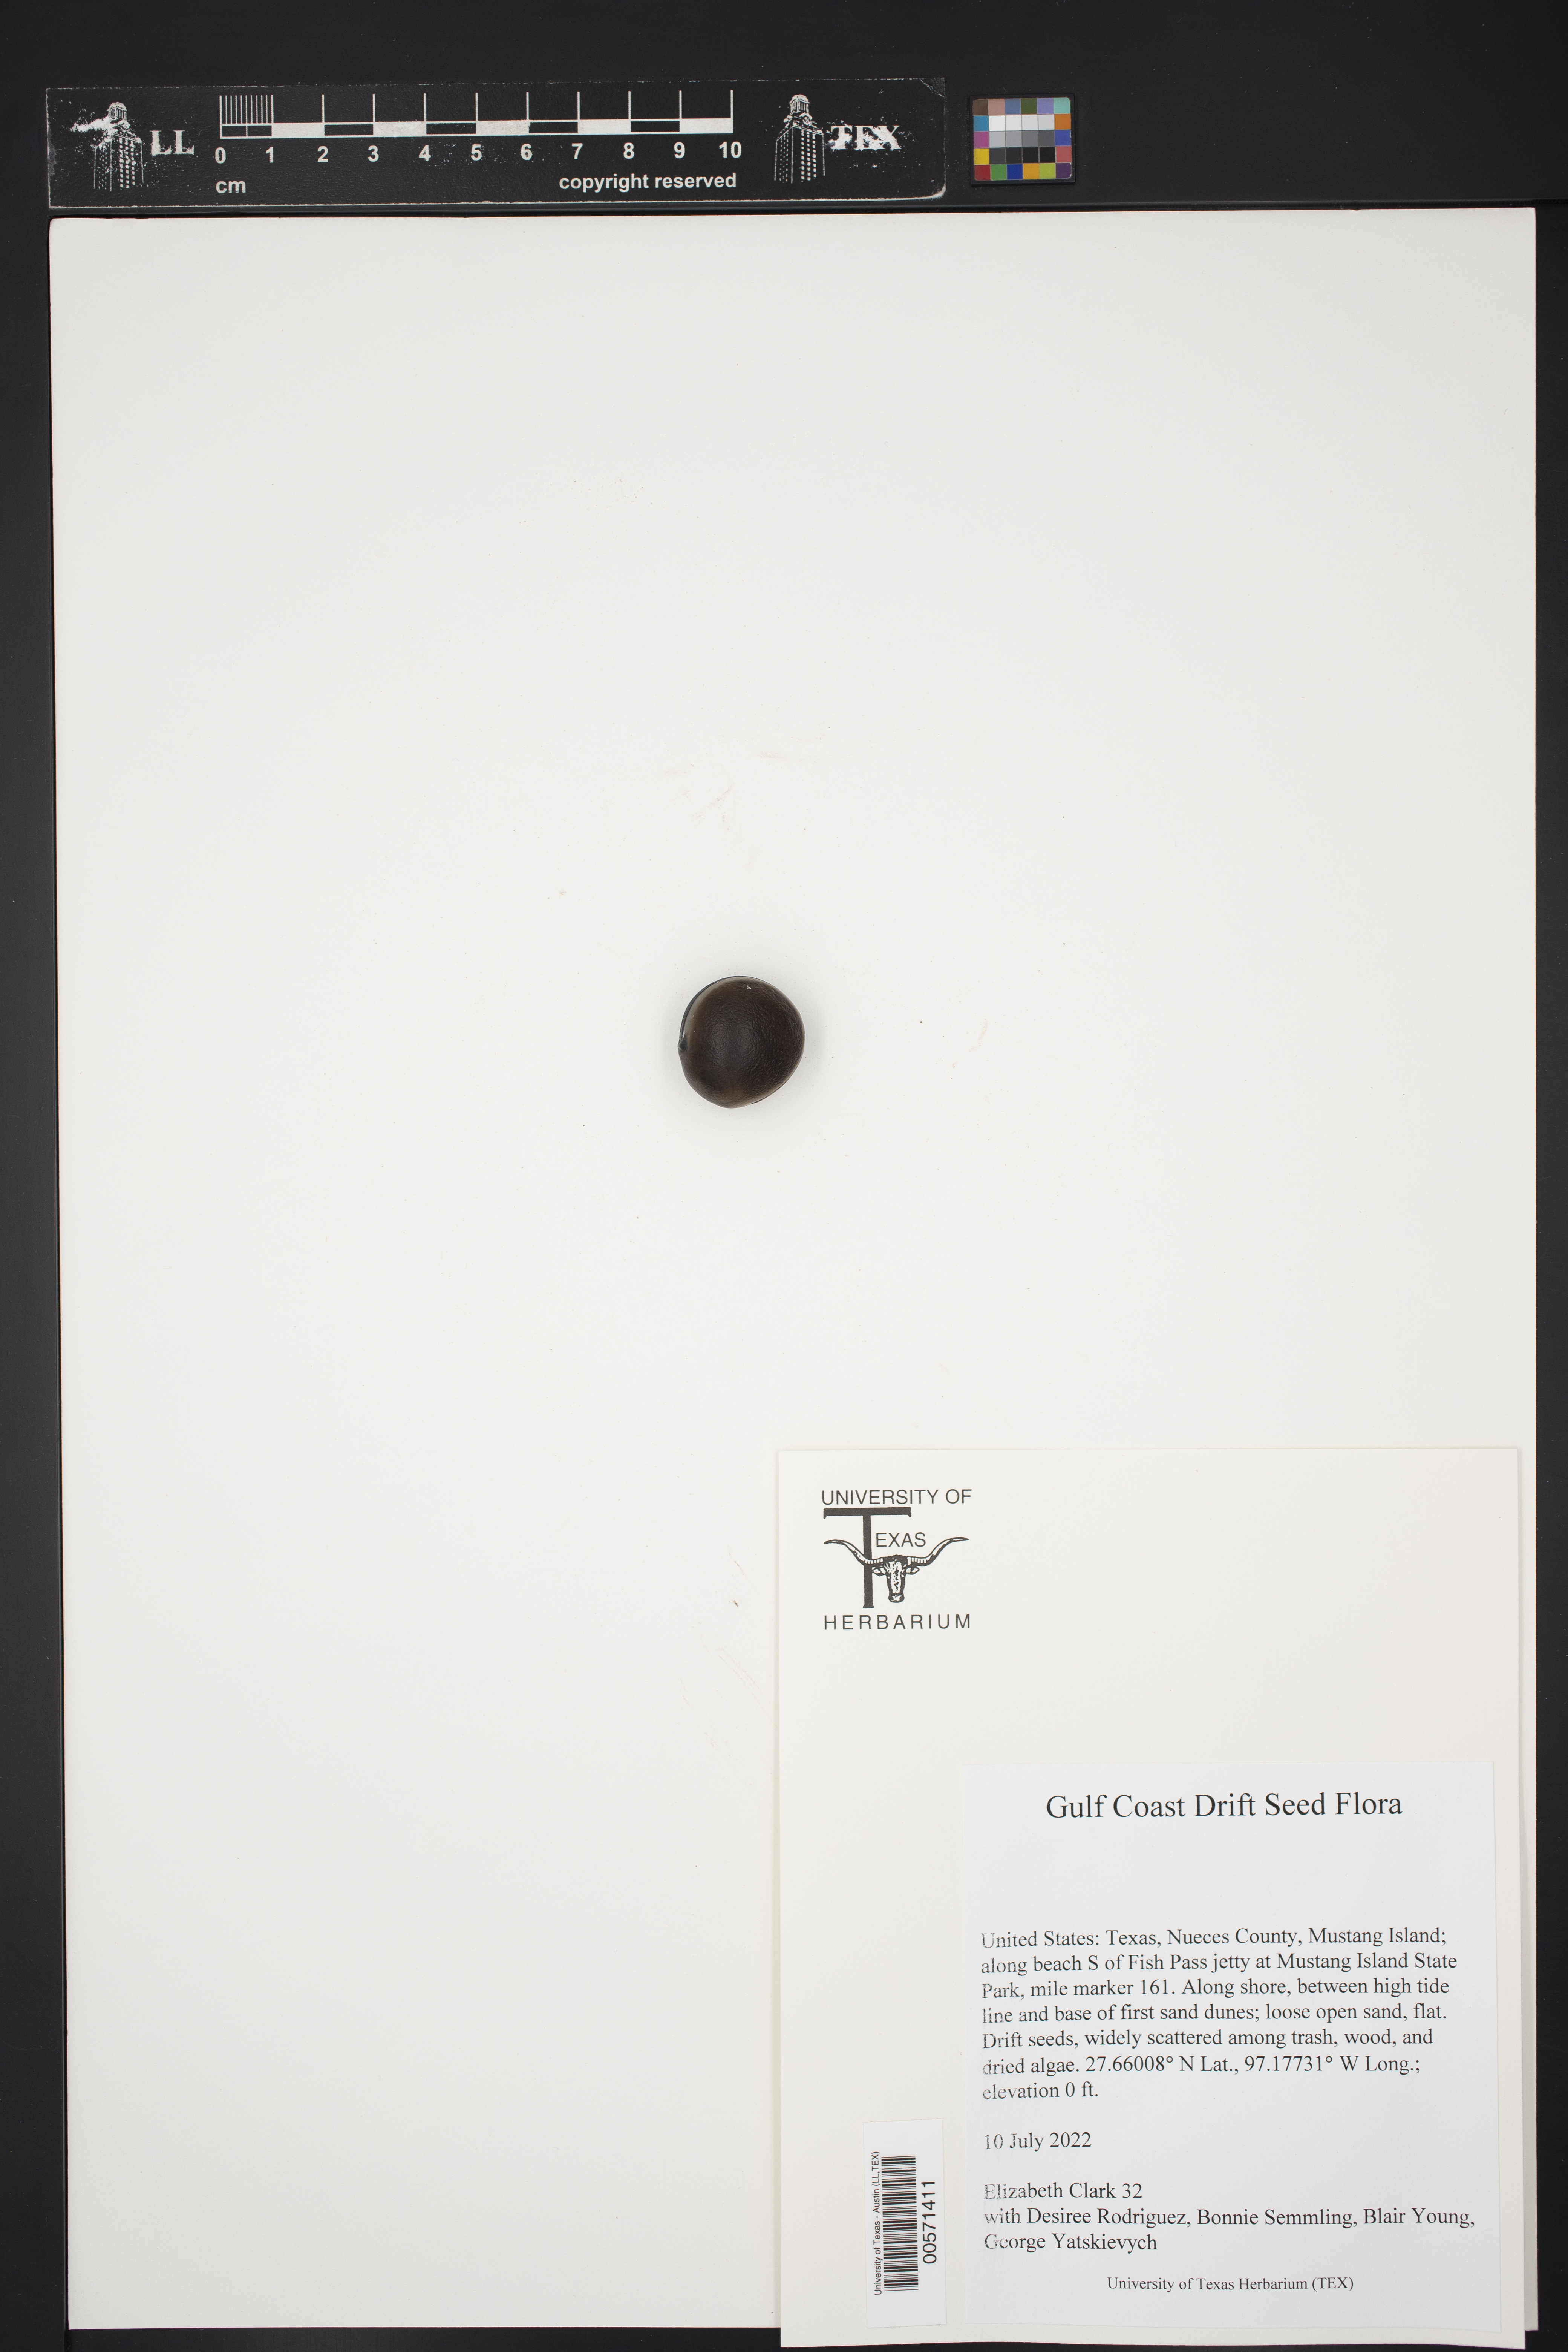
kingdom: Plantae
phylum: Tracheophyta
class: Magnoliopsida
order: Fabales
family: Fabaceae
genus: Mucuna
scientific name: Mucuna sloanei
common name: Horse-eye bean
